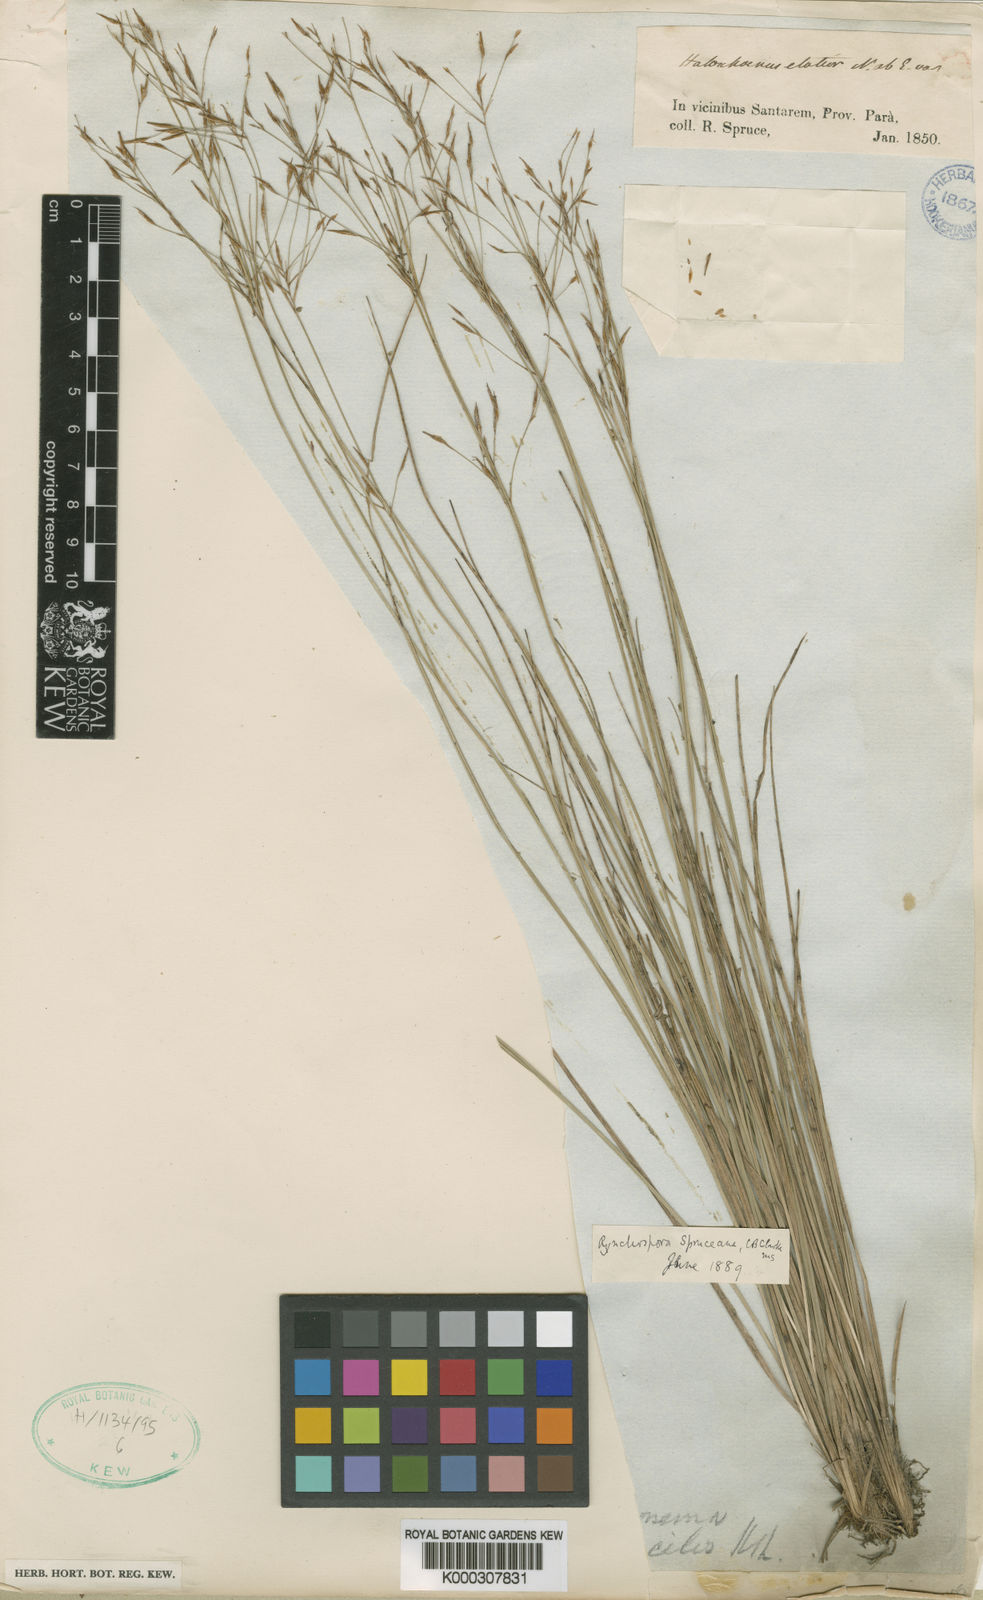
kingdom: Plantae
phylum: Tracheophyta
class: Liliopsida
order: Poales
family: Cyperaceae
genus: Rhynchospora
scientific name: Rhynchospora spruceana
